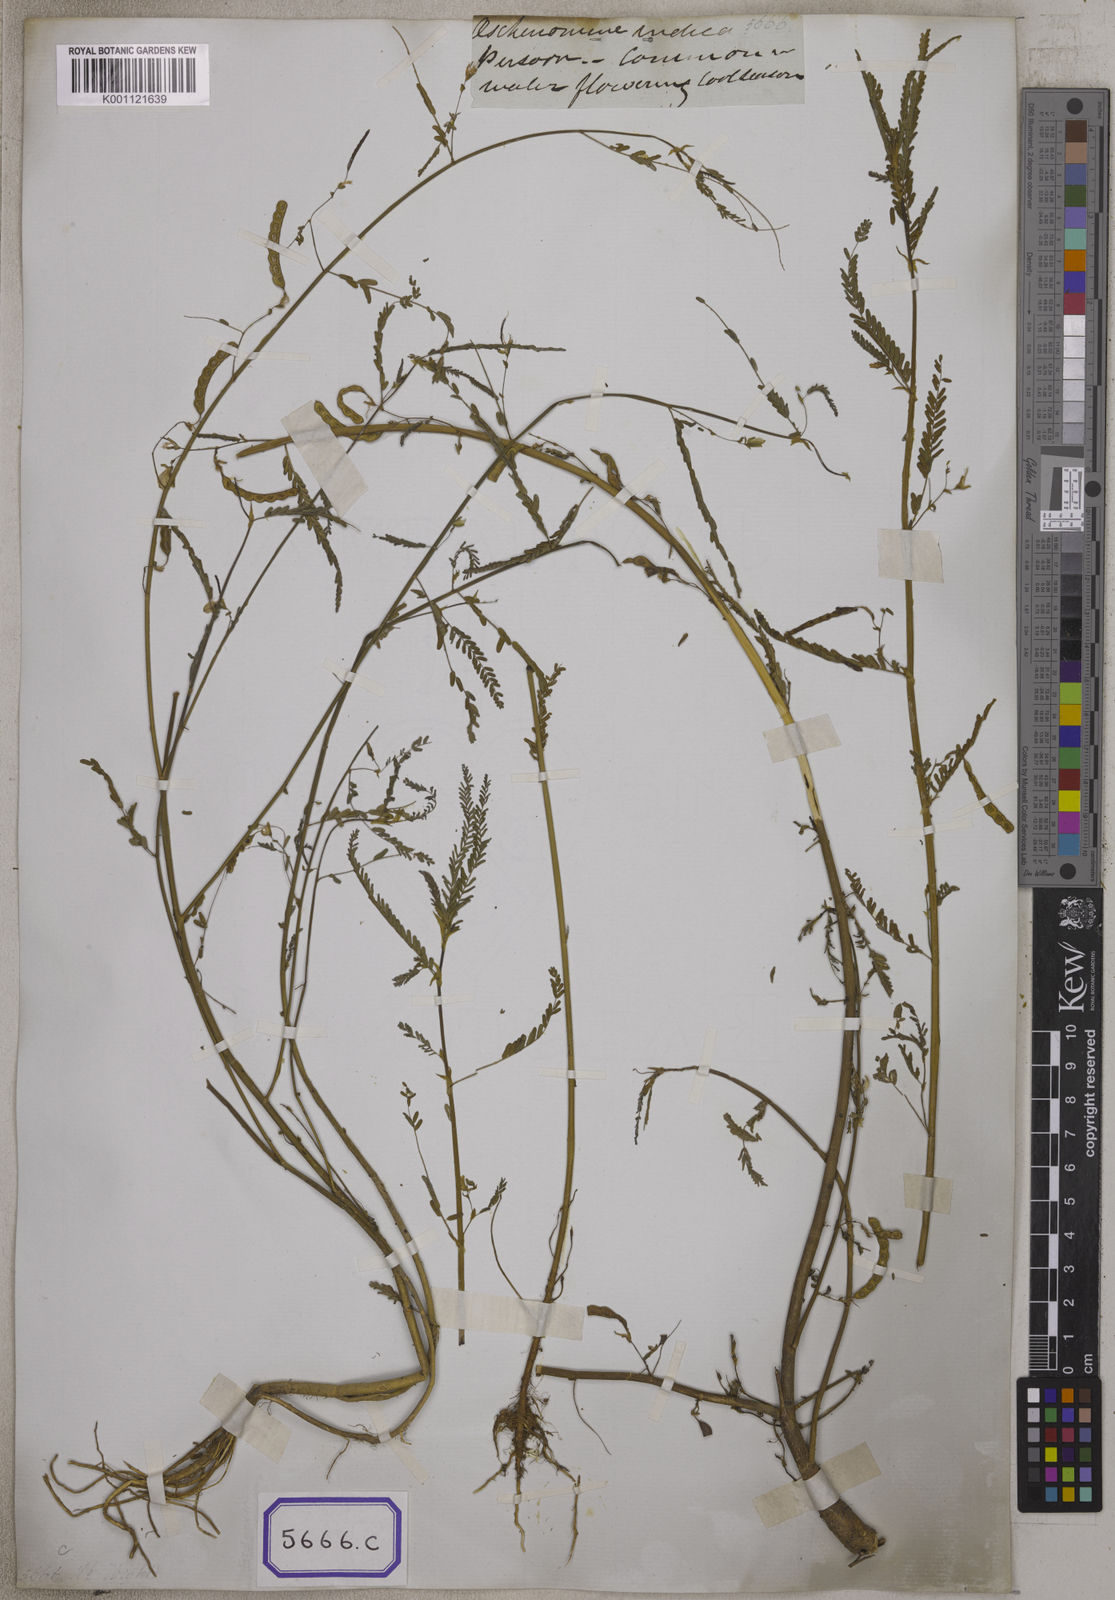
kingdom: Plantae
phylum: Tracheophyta
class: Magnoliopsida
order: Fabales
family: Fabaceae
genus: Aeschynomene
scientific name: Aeschynomene aspera
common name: Pith plant
